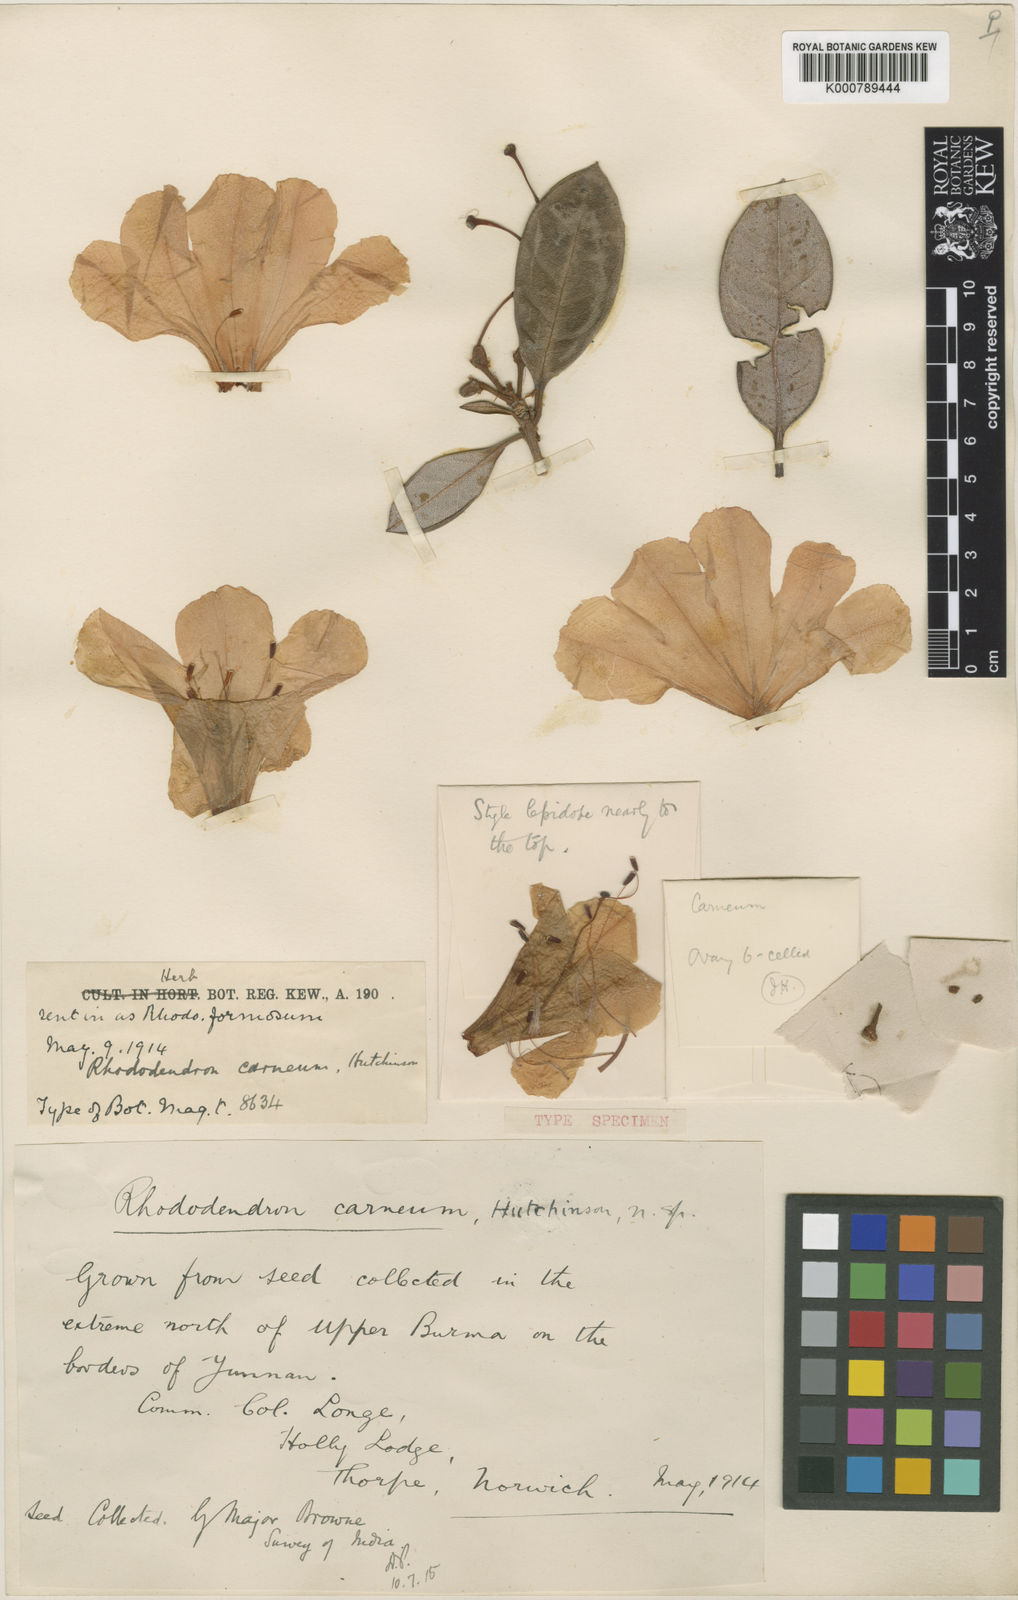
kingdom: Plantae
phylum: Tracheophyta
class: Magnoliopsida
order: Ericales
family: Ericaceae
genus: Rhododendron
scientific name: Rhododendron
